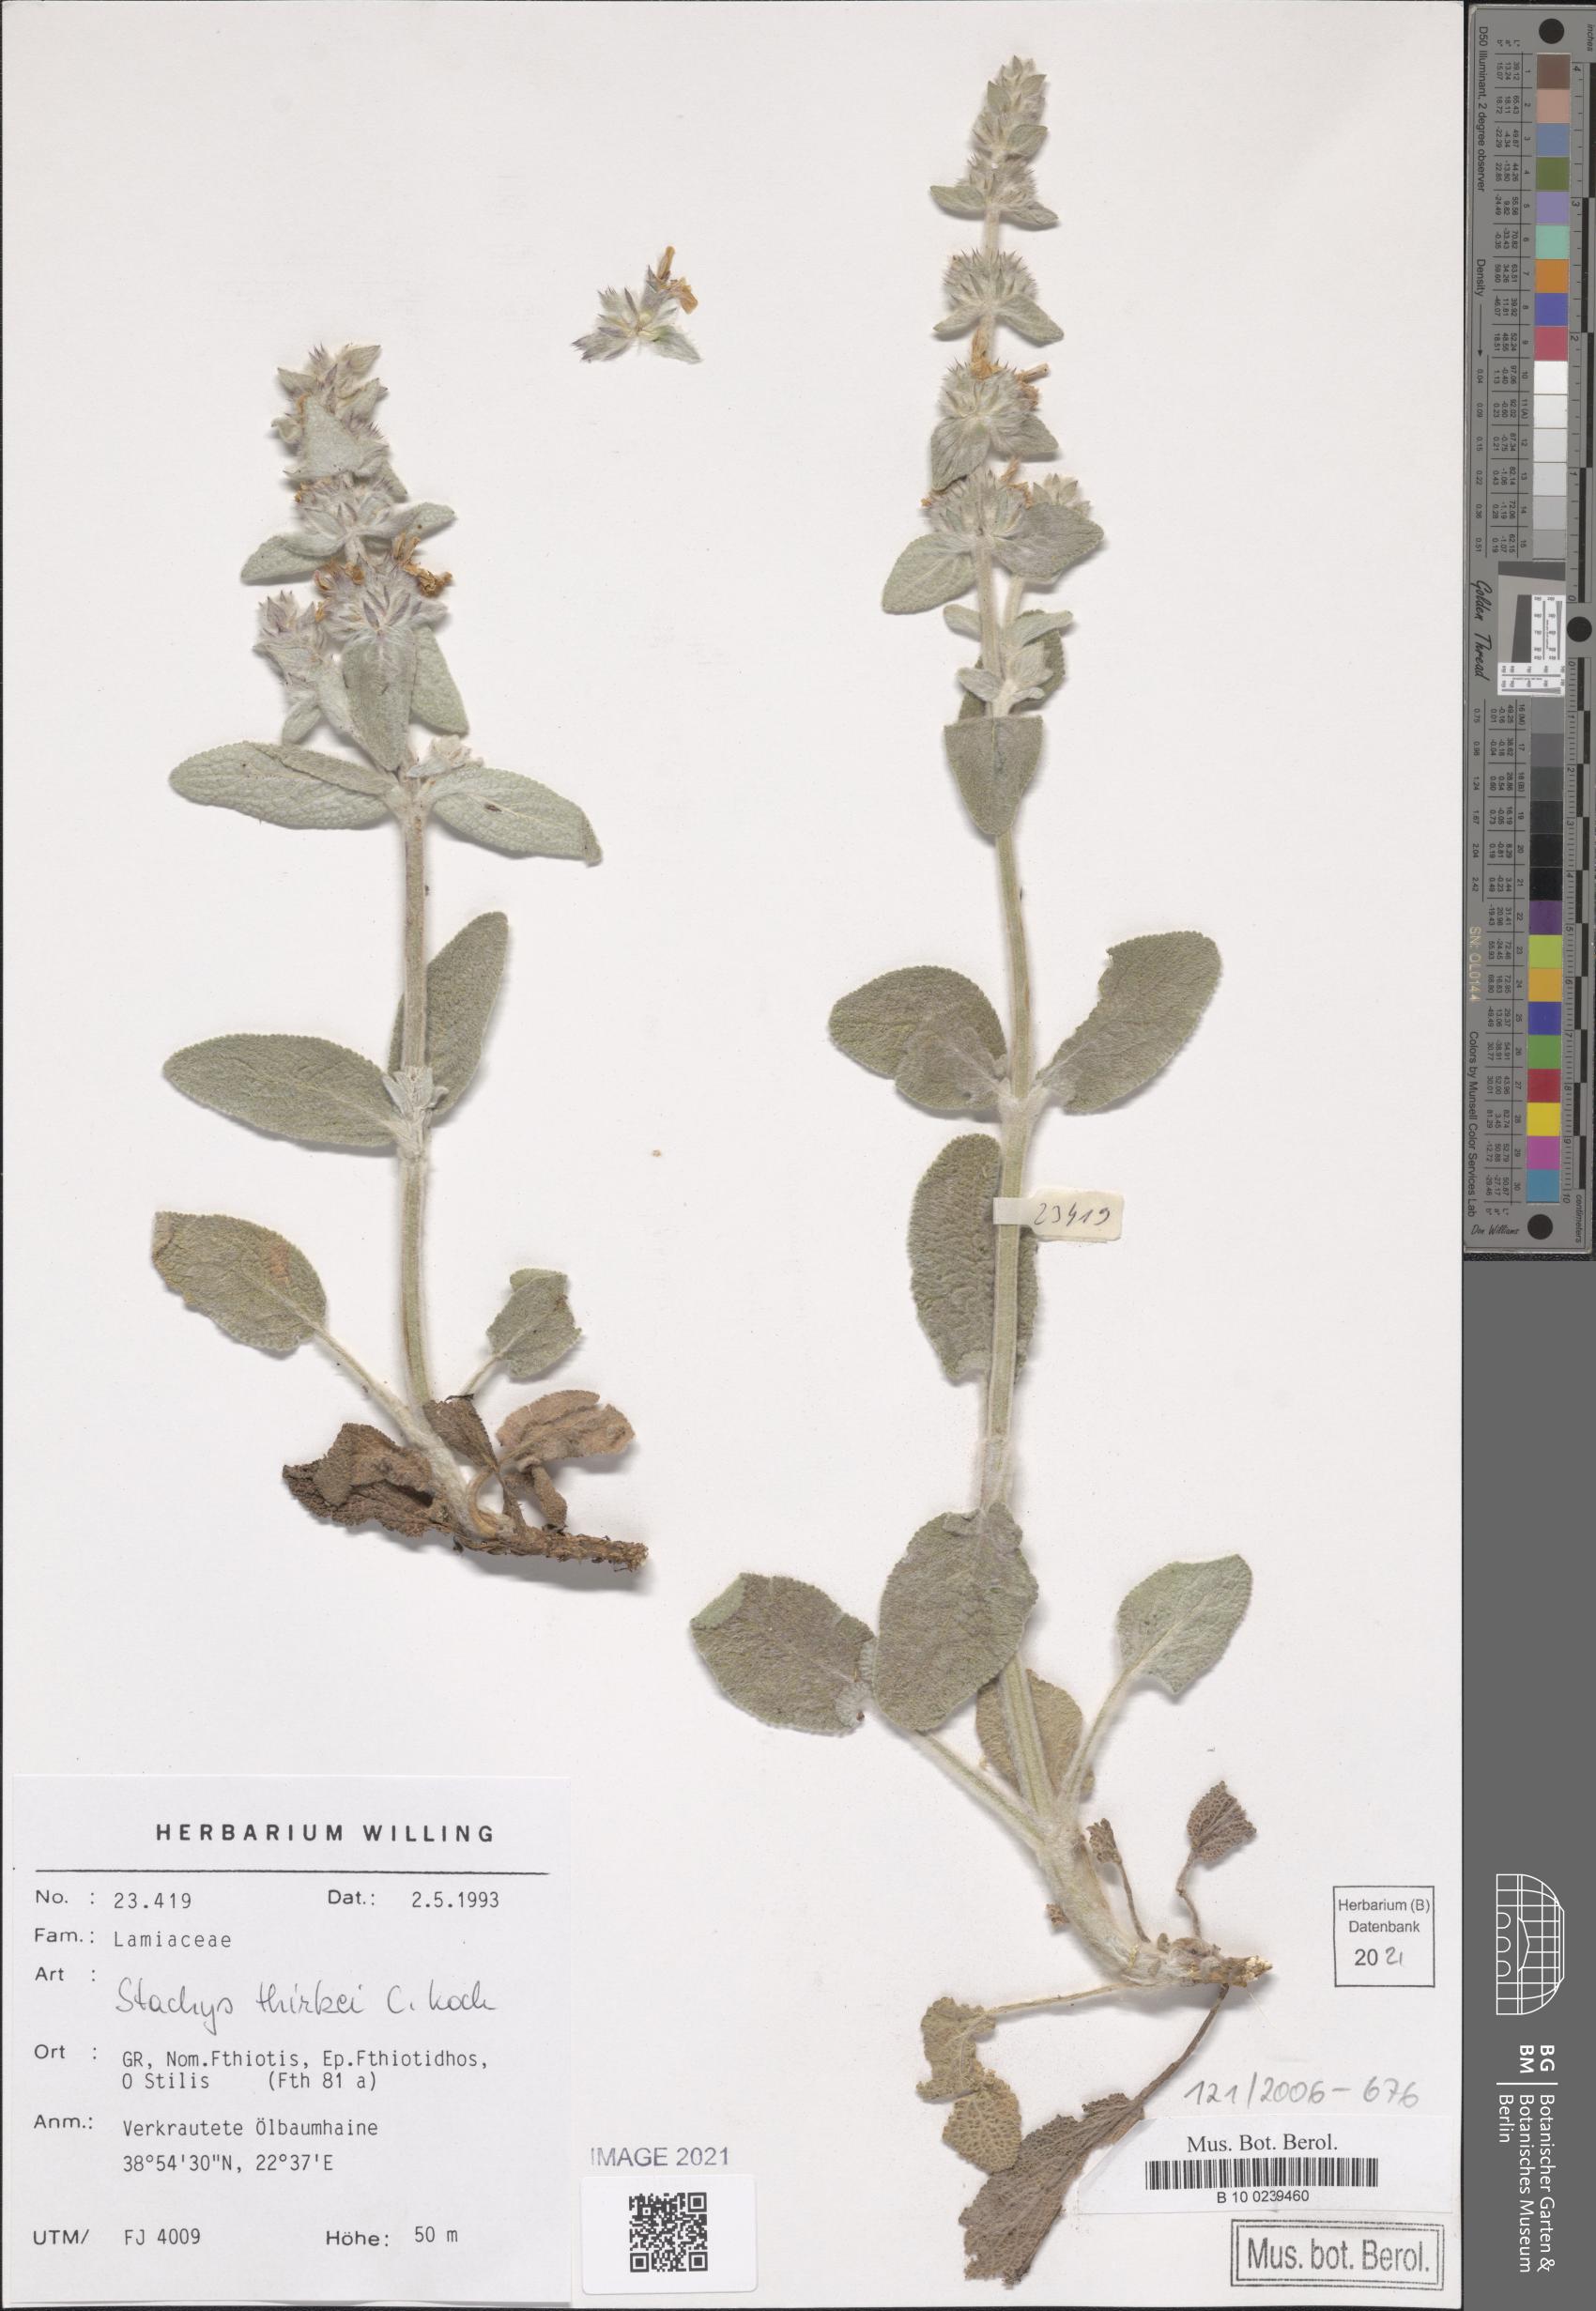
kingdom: Plantae
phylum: Tracheophyta
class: Magnoliopsida
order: Lamiales
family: Lamiaceae
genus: Stachys
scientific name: Stachys thirkei
